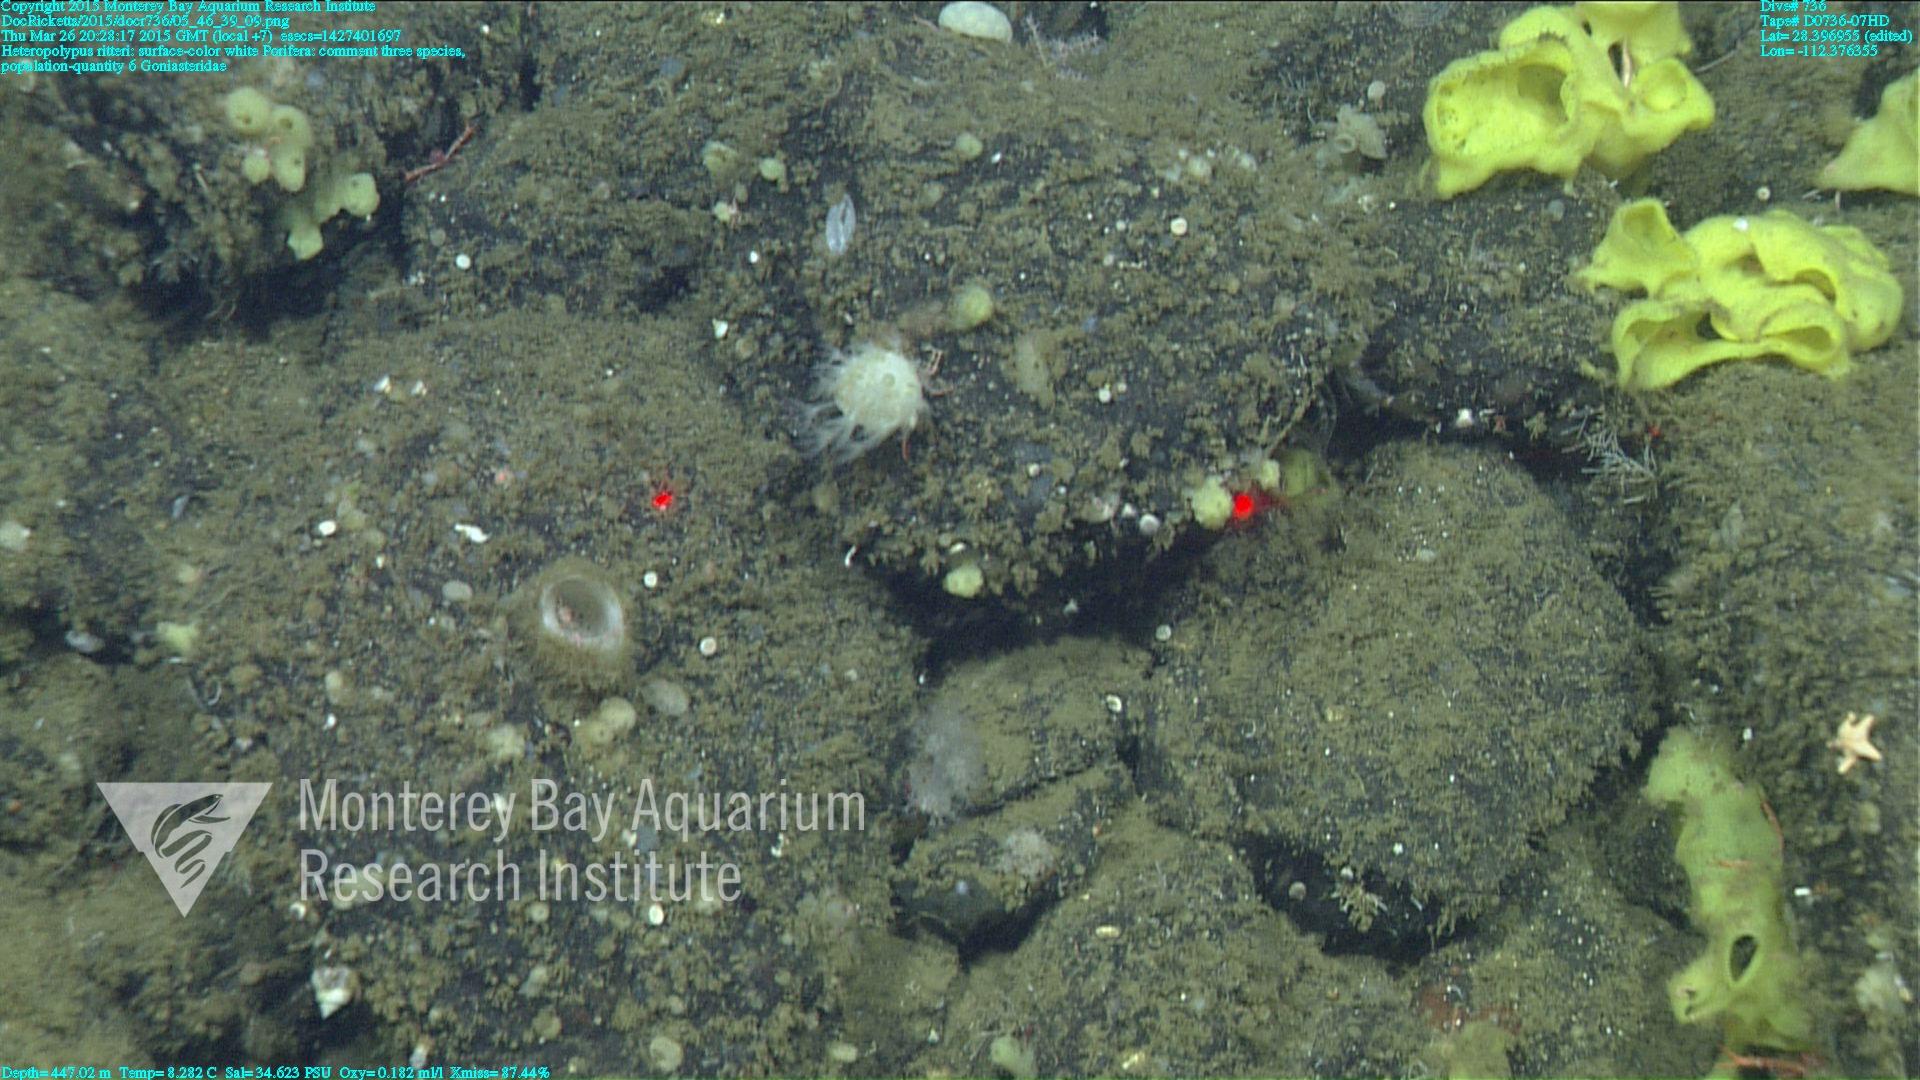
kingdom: Animalia
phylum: Cnidaria
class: Anthozoa
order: Scleralcyonacea
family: Coralliidae
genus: Heteropolypus
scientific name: Heteropolypus ritteri
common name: Ritter's soft coral
